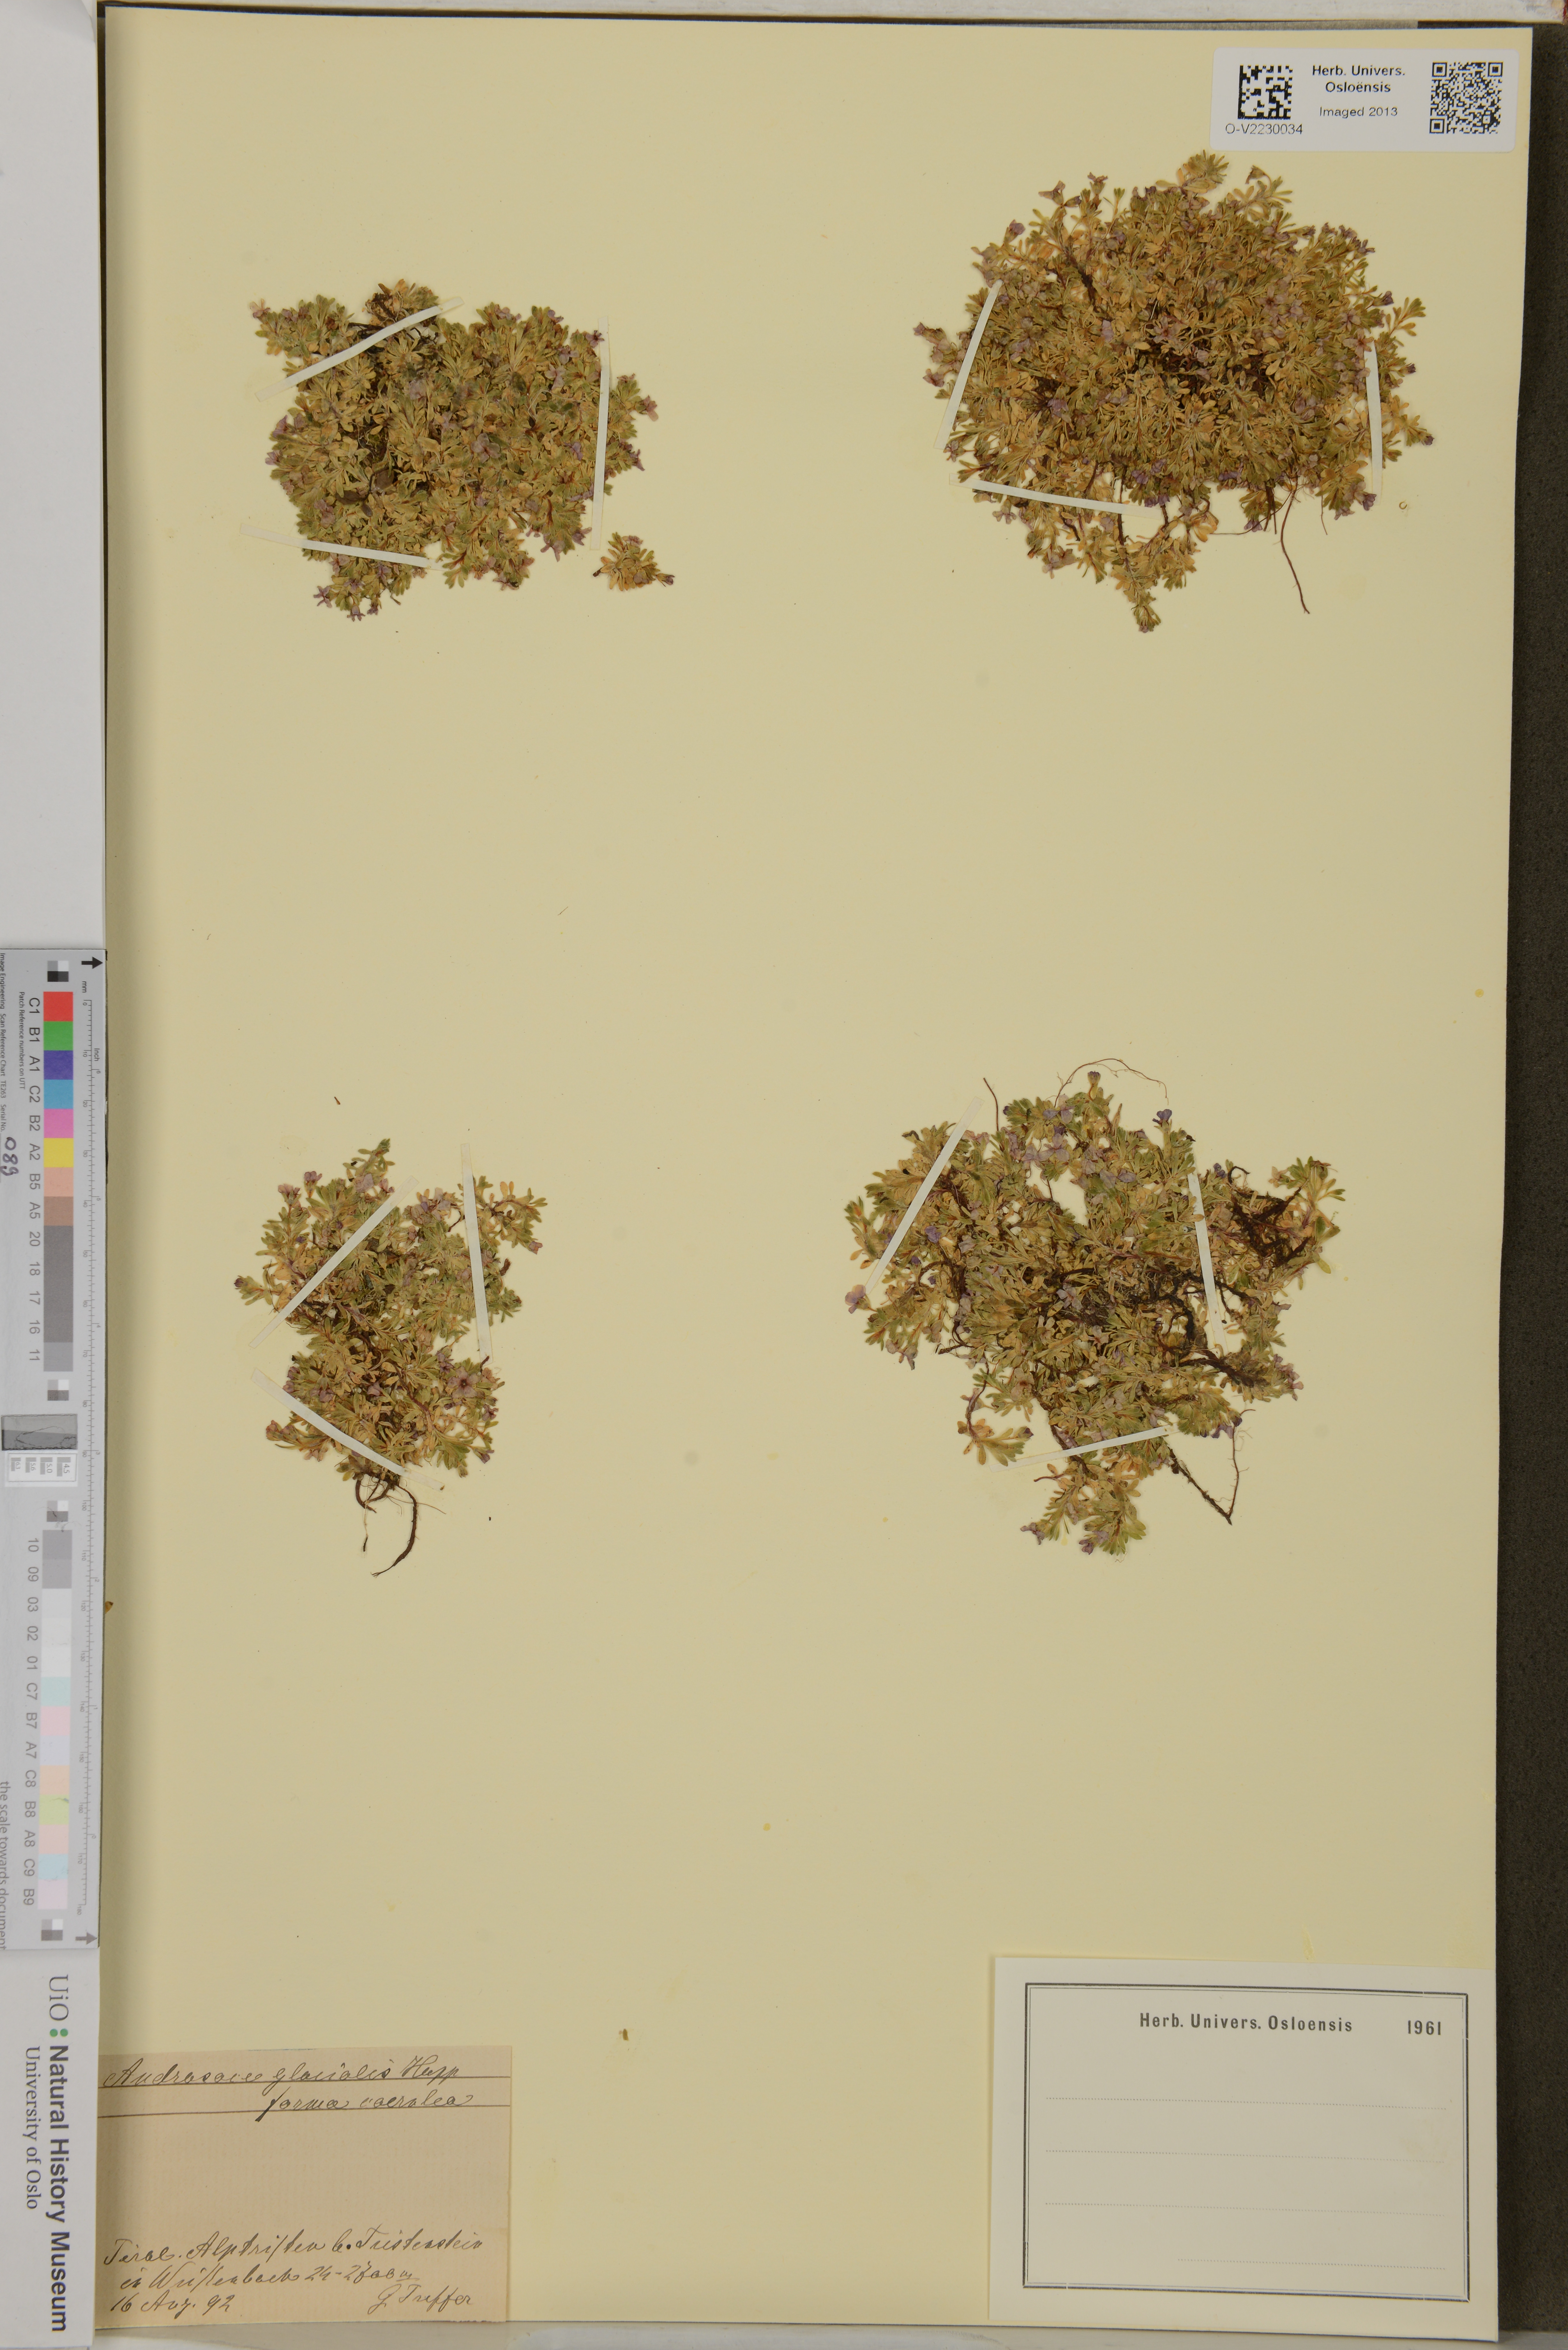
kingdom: Plantae
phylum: Tracheophyta
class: Magnoliopsida
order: Ericales
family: Primulaceae
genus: Androsace
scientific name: Androsace alpina
